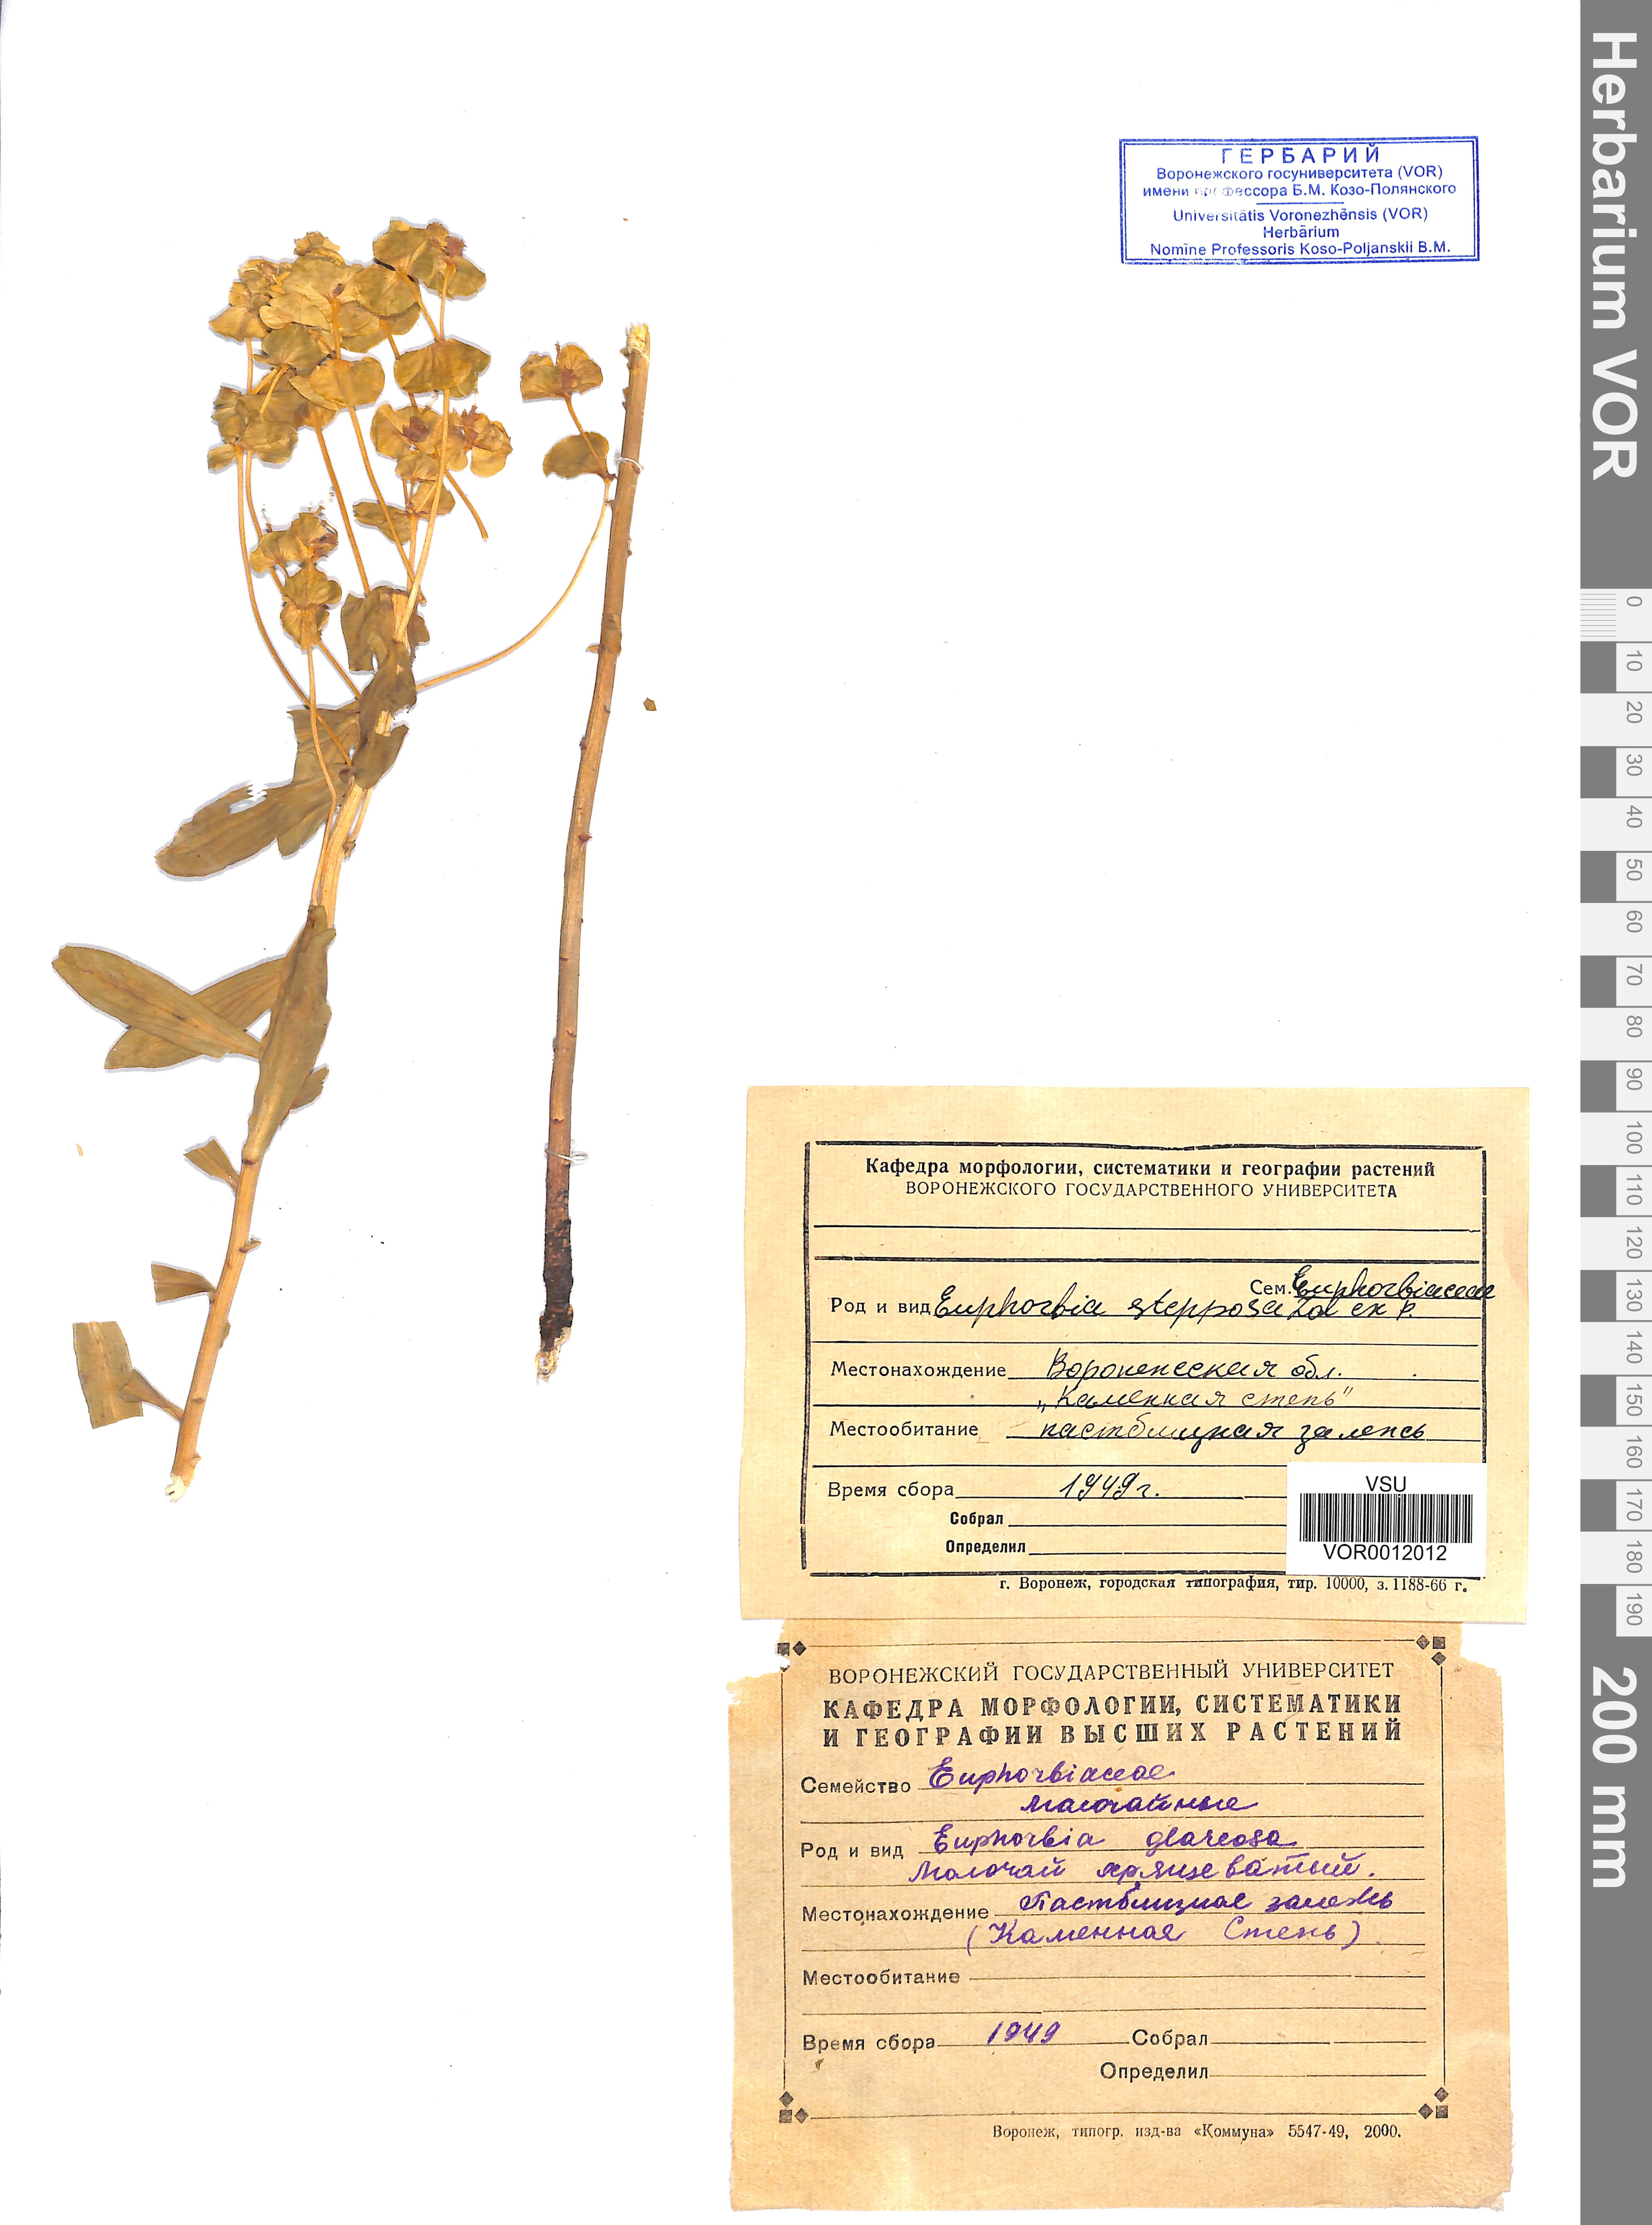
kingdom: Plantae
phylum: Tracheophyta
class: Magnoliopsida
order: Malpighiales
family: Euphorbiaceae
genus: Euphorbia
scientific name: Euphorbia stepposa
